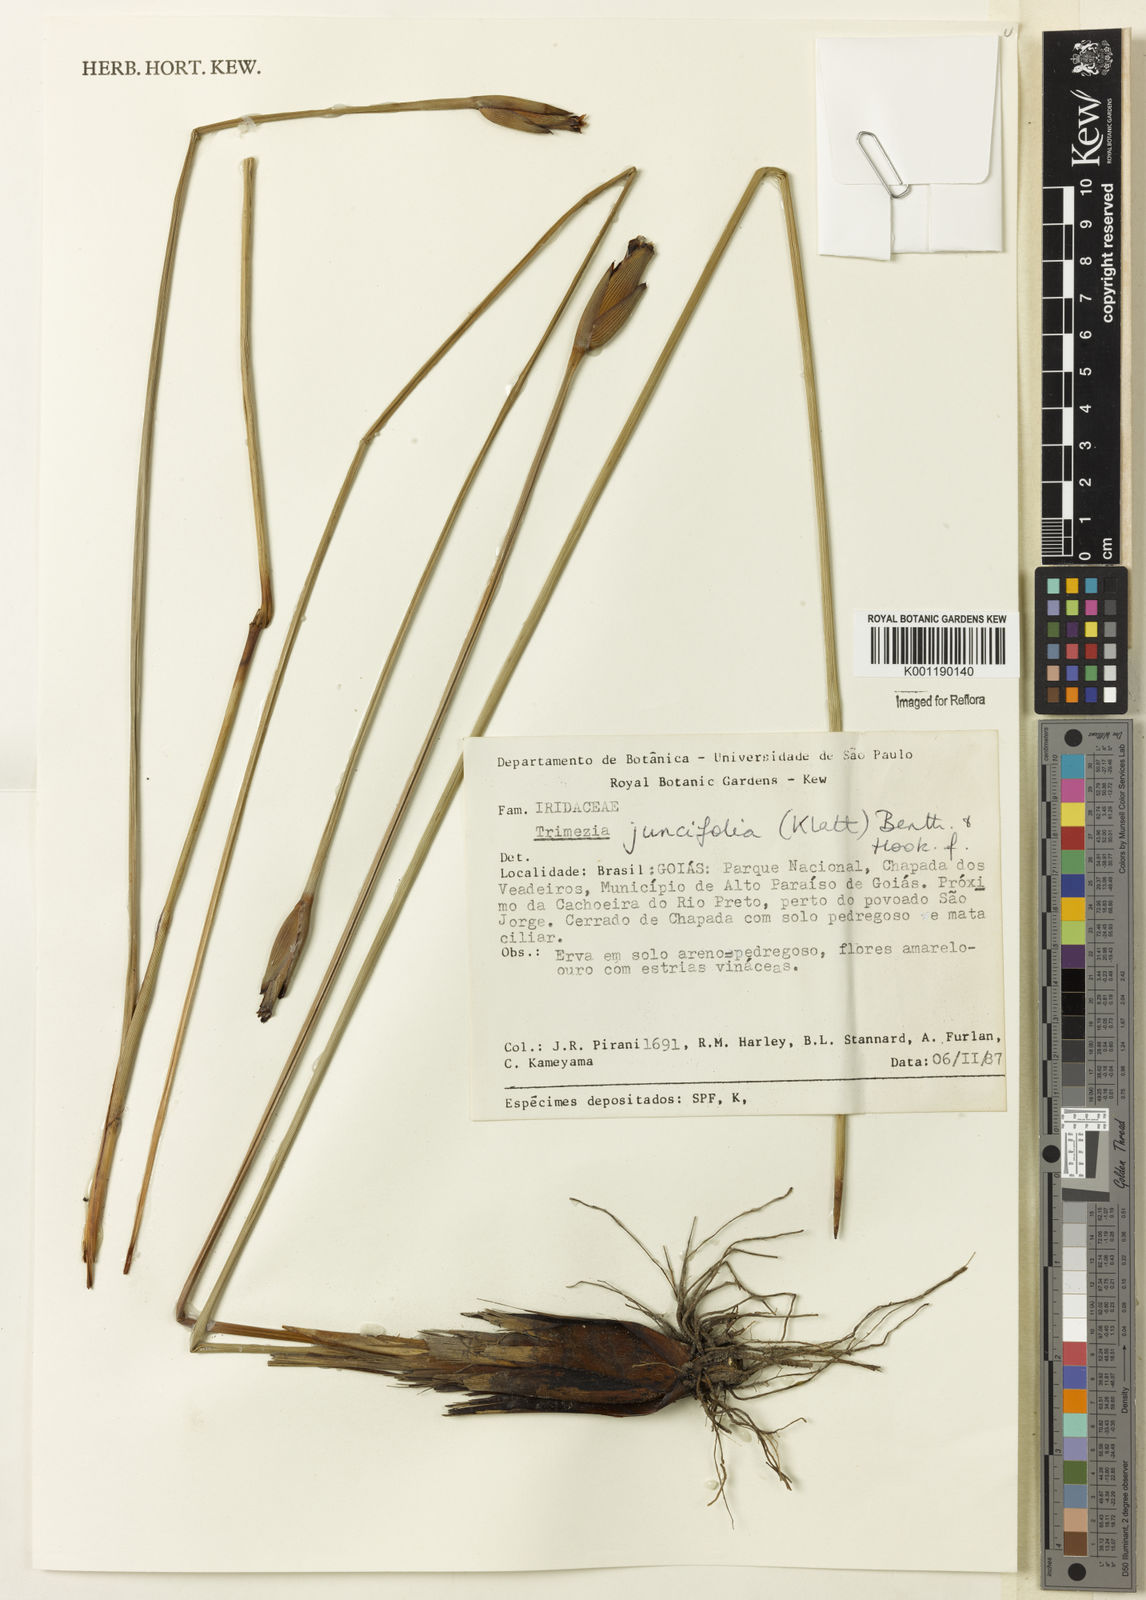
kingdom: Plantae
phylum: Tracheophyta
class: Liliopsida
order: Asparagales
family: Iridaceae
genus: Trimezia
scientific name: Trimezia juncifolia
